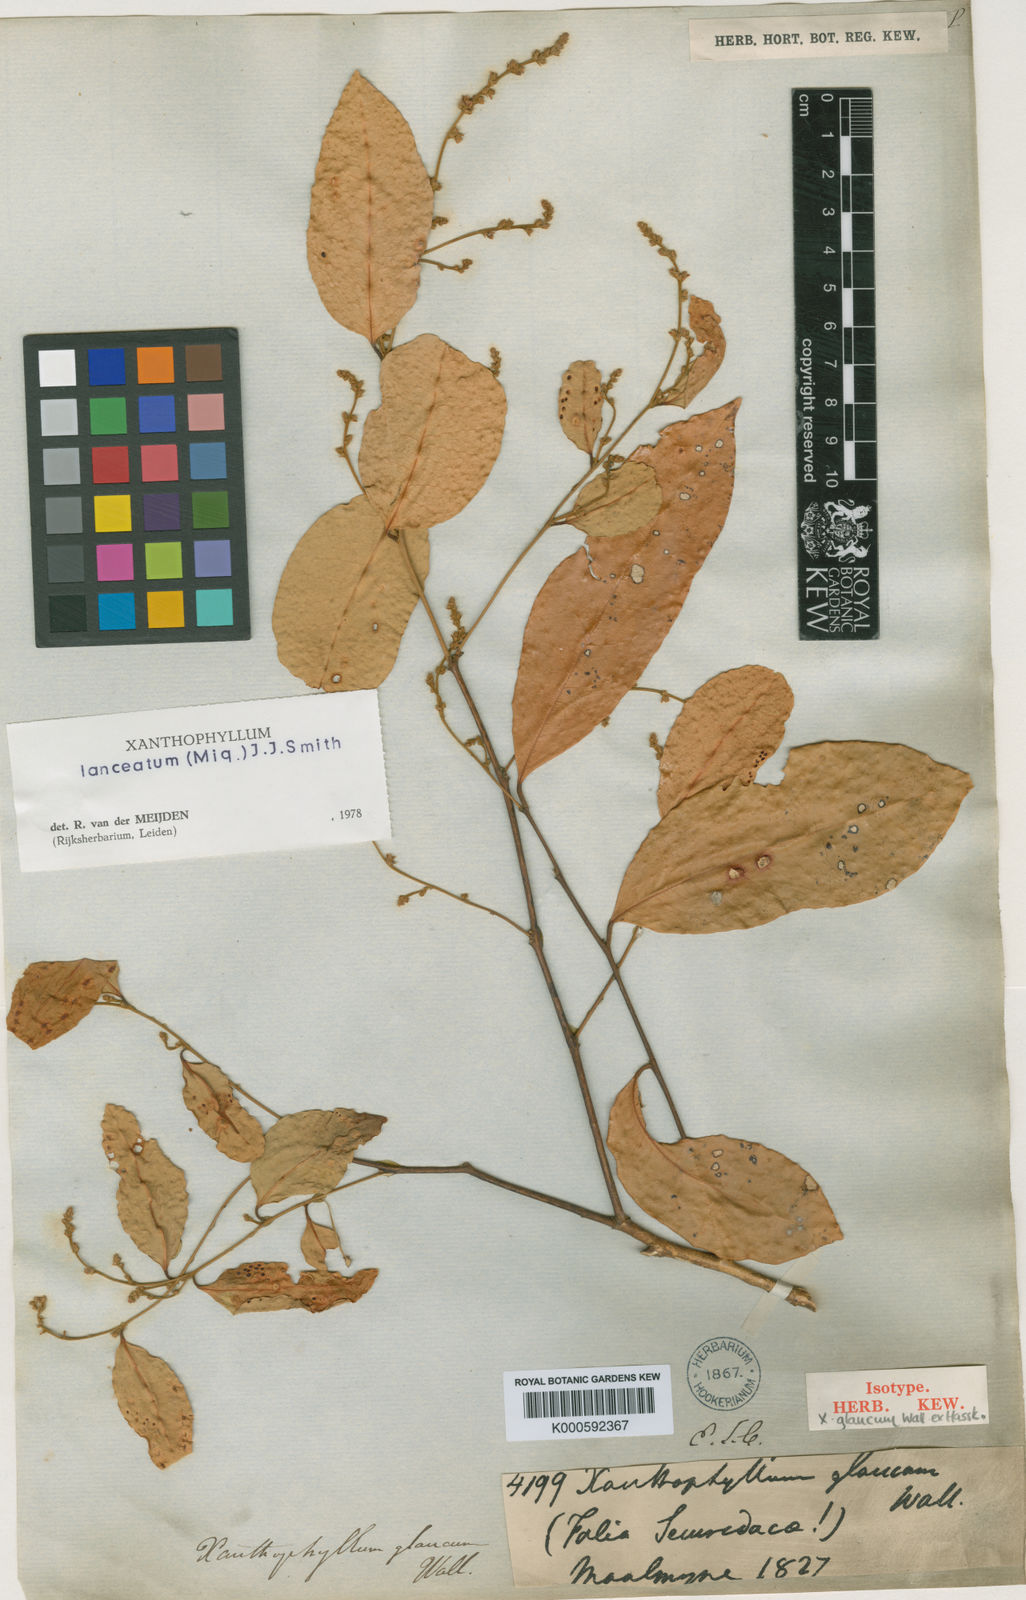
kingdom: Plantae
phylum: Tracheophyta
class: Magnoliopsida
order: Fabales
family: Polygalaceae
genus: Xanthophyllum
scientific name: Xanthophyllum lanceatum
